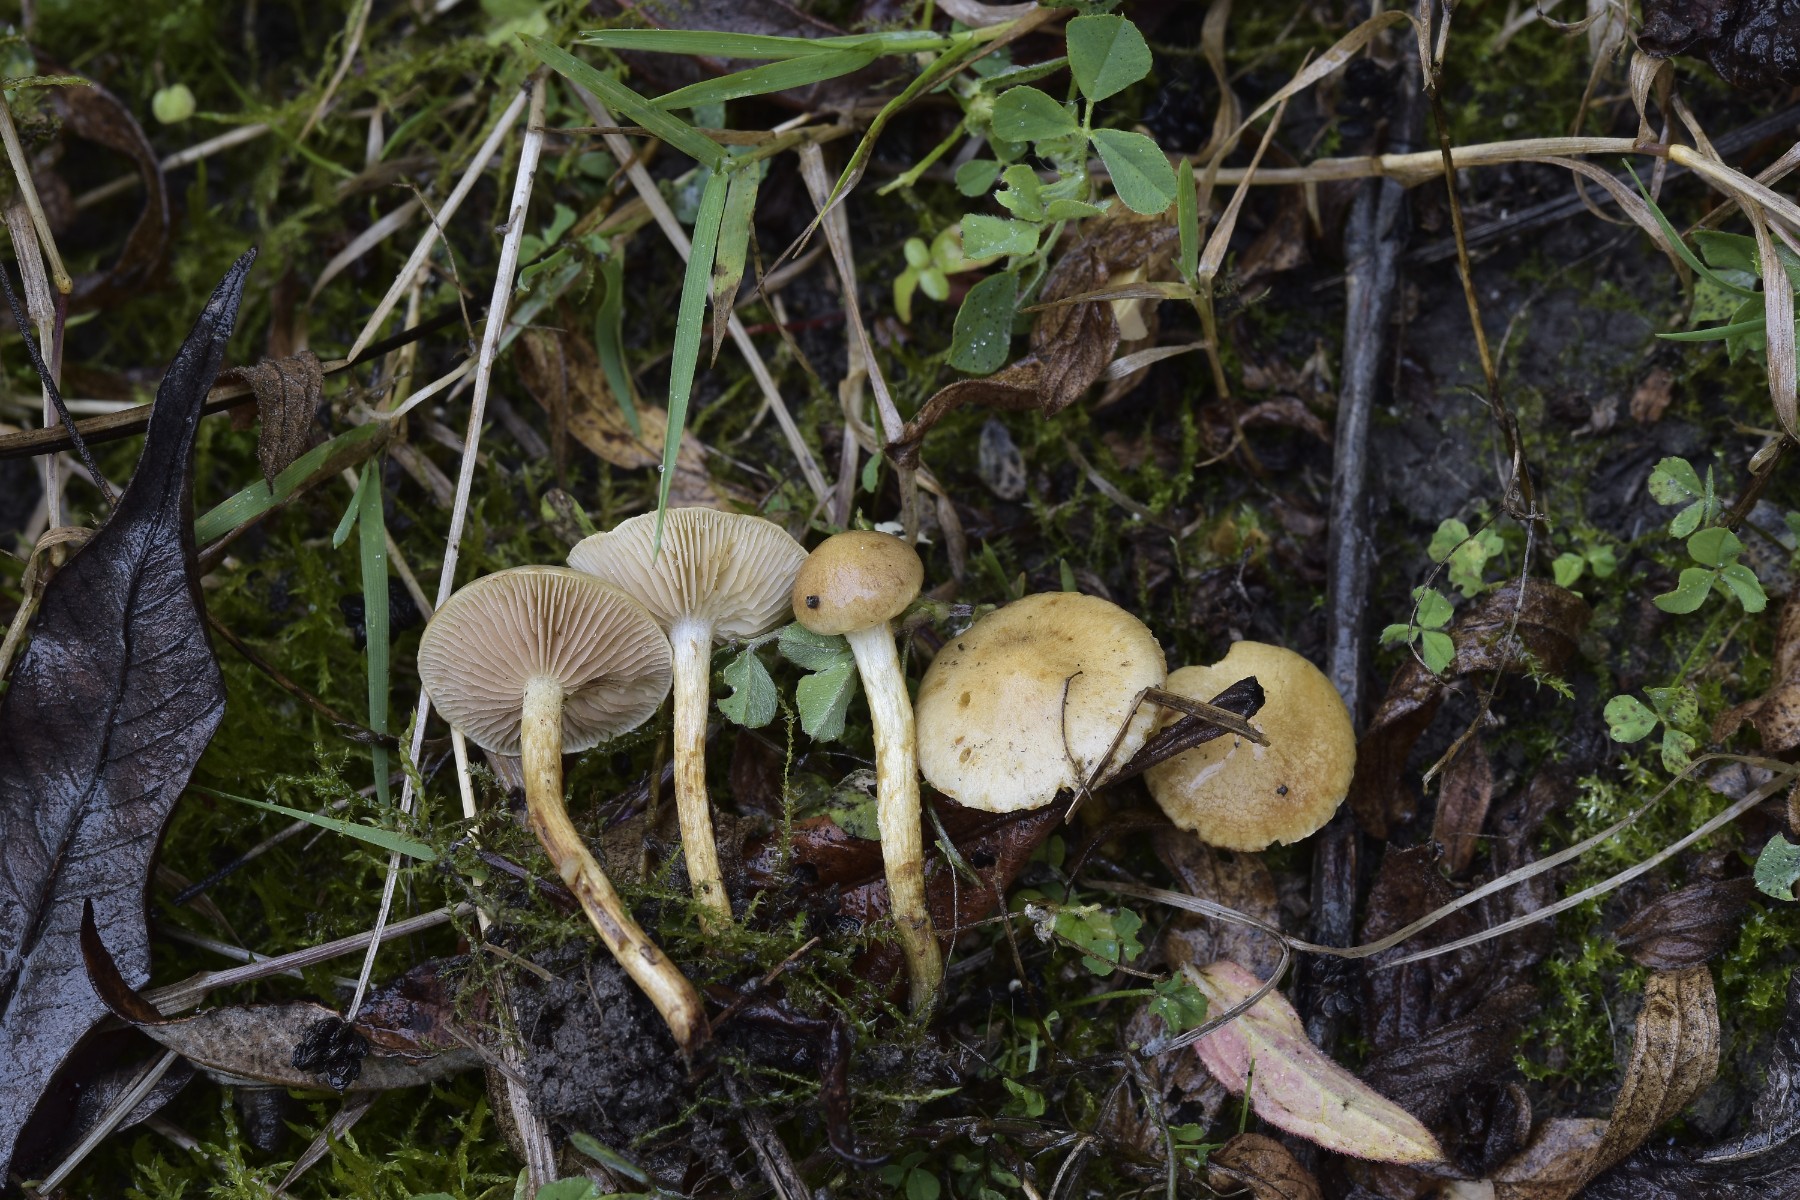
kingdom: Fungi
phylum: Basidiomycota
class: Agaricomycetes
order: Agaricales
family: Strophariaceae
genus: Pholiota
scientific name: Pholiota conissans
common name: pile-skælhat
